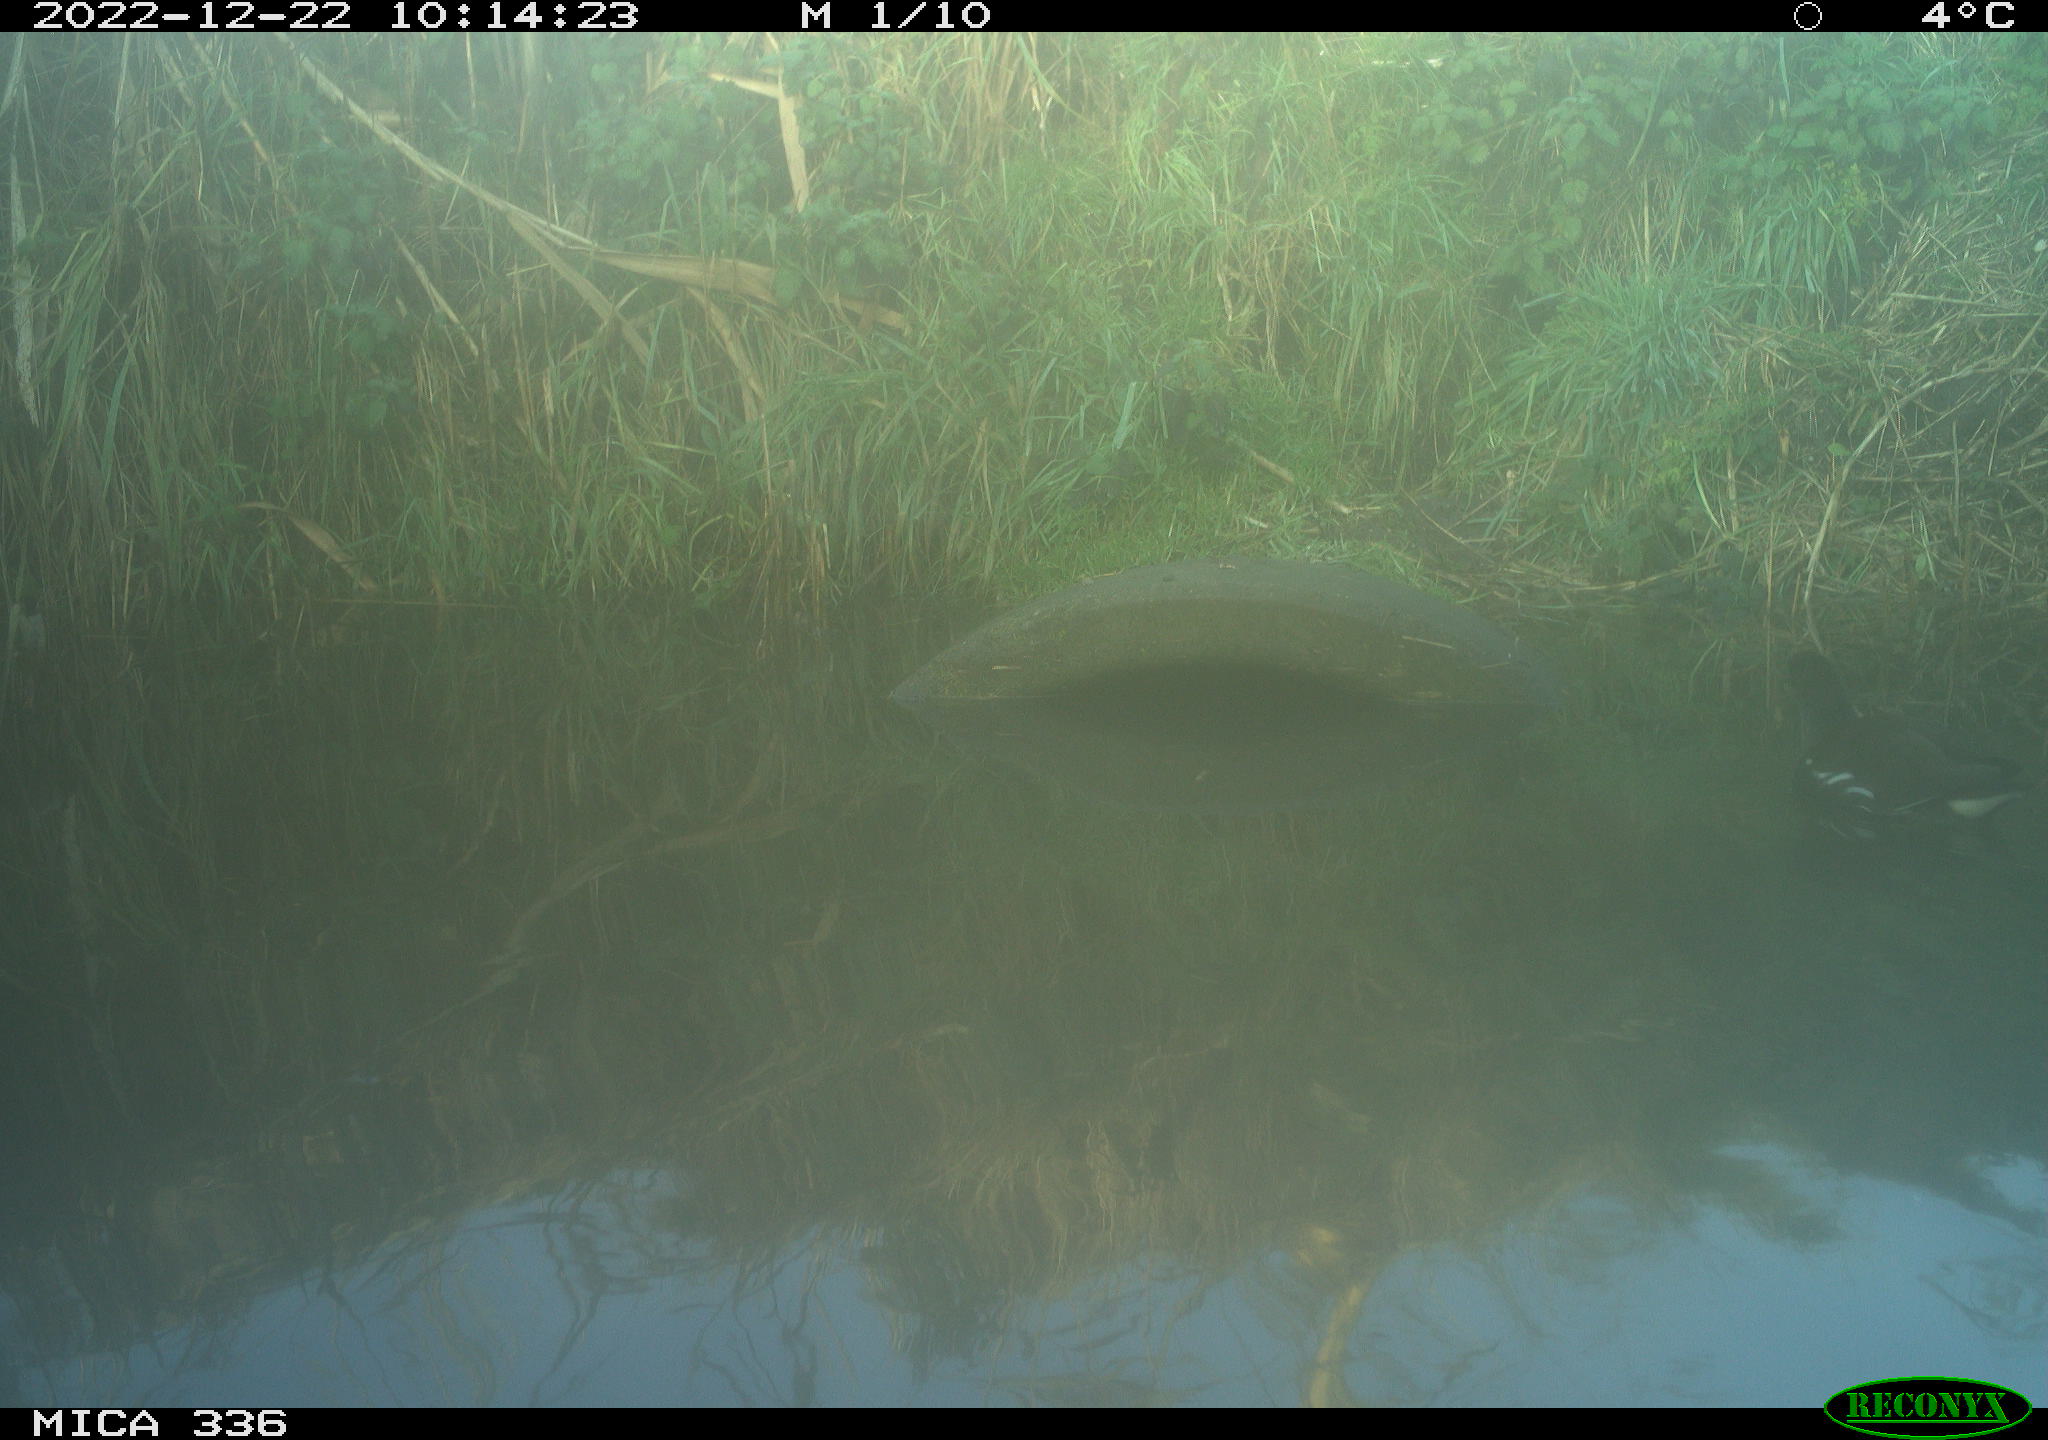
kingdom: Animalia
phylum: Chordata
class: Aves
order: Gruiformes
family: Rallidae
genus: Gallinula
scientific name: Gallinula chloropus
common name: Common moorhen
